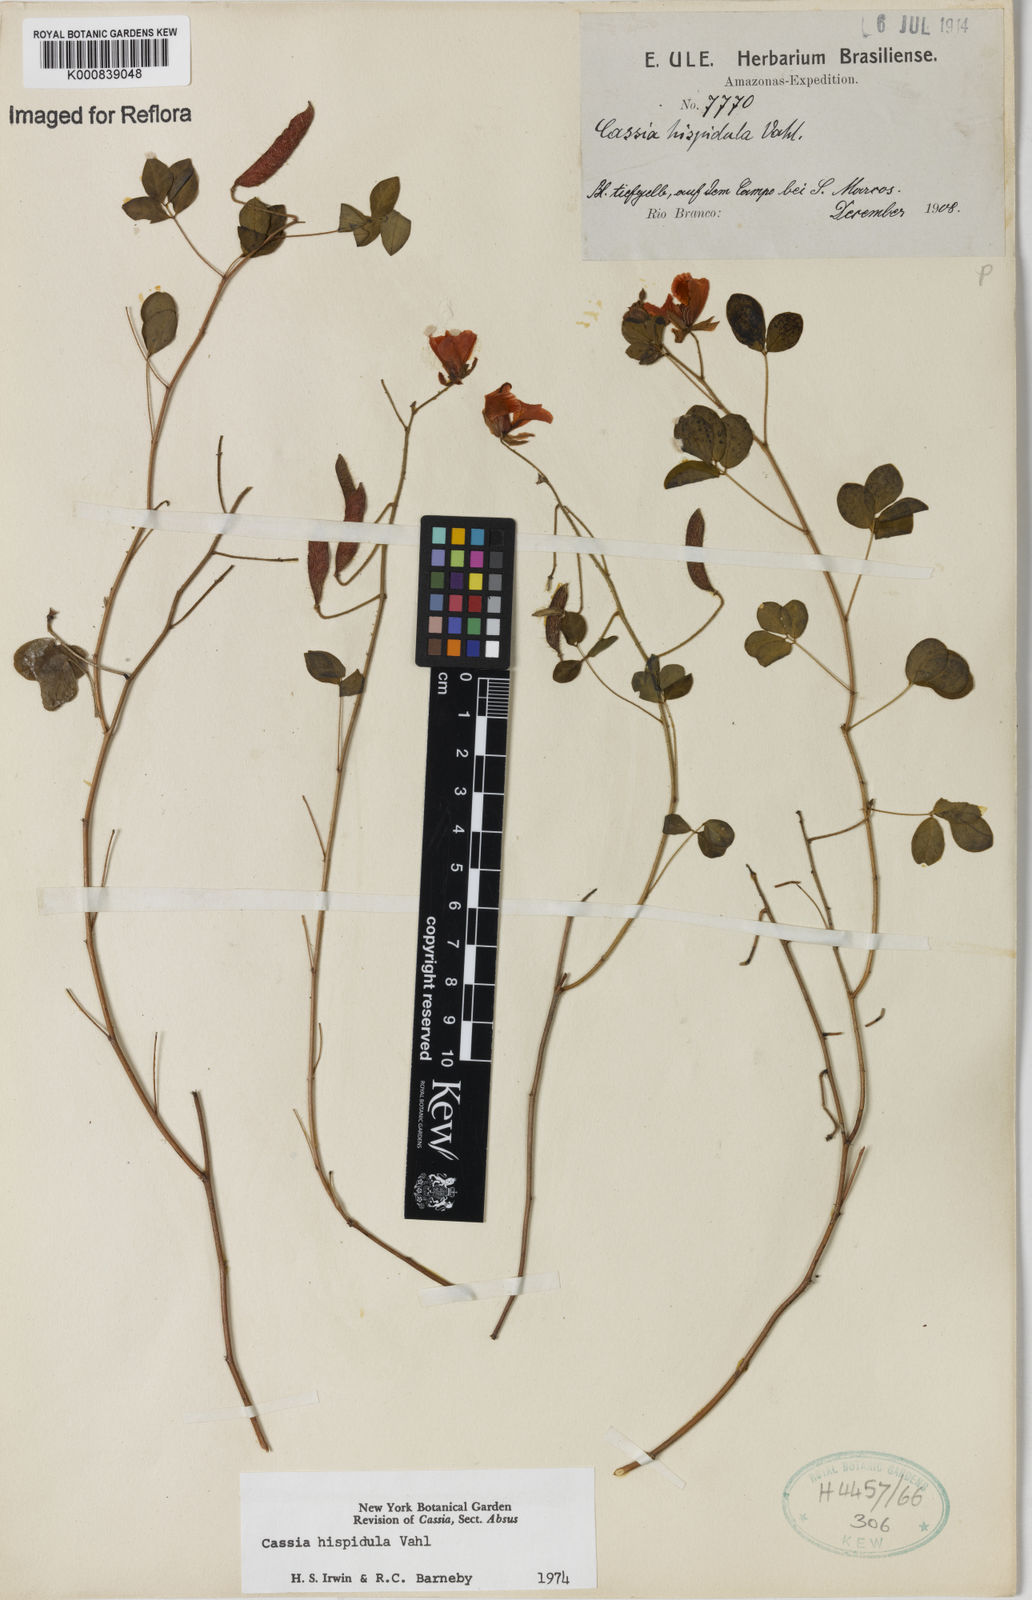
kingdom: Plantae
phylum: Tracheophyta
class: Magnoliopsida
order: Fabales
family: Fabaceae
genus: Chamaecrista
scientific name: Chamaecrista hispidula
